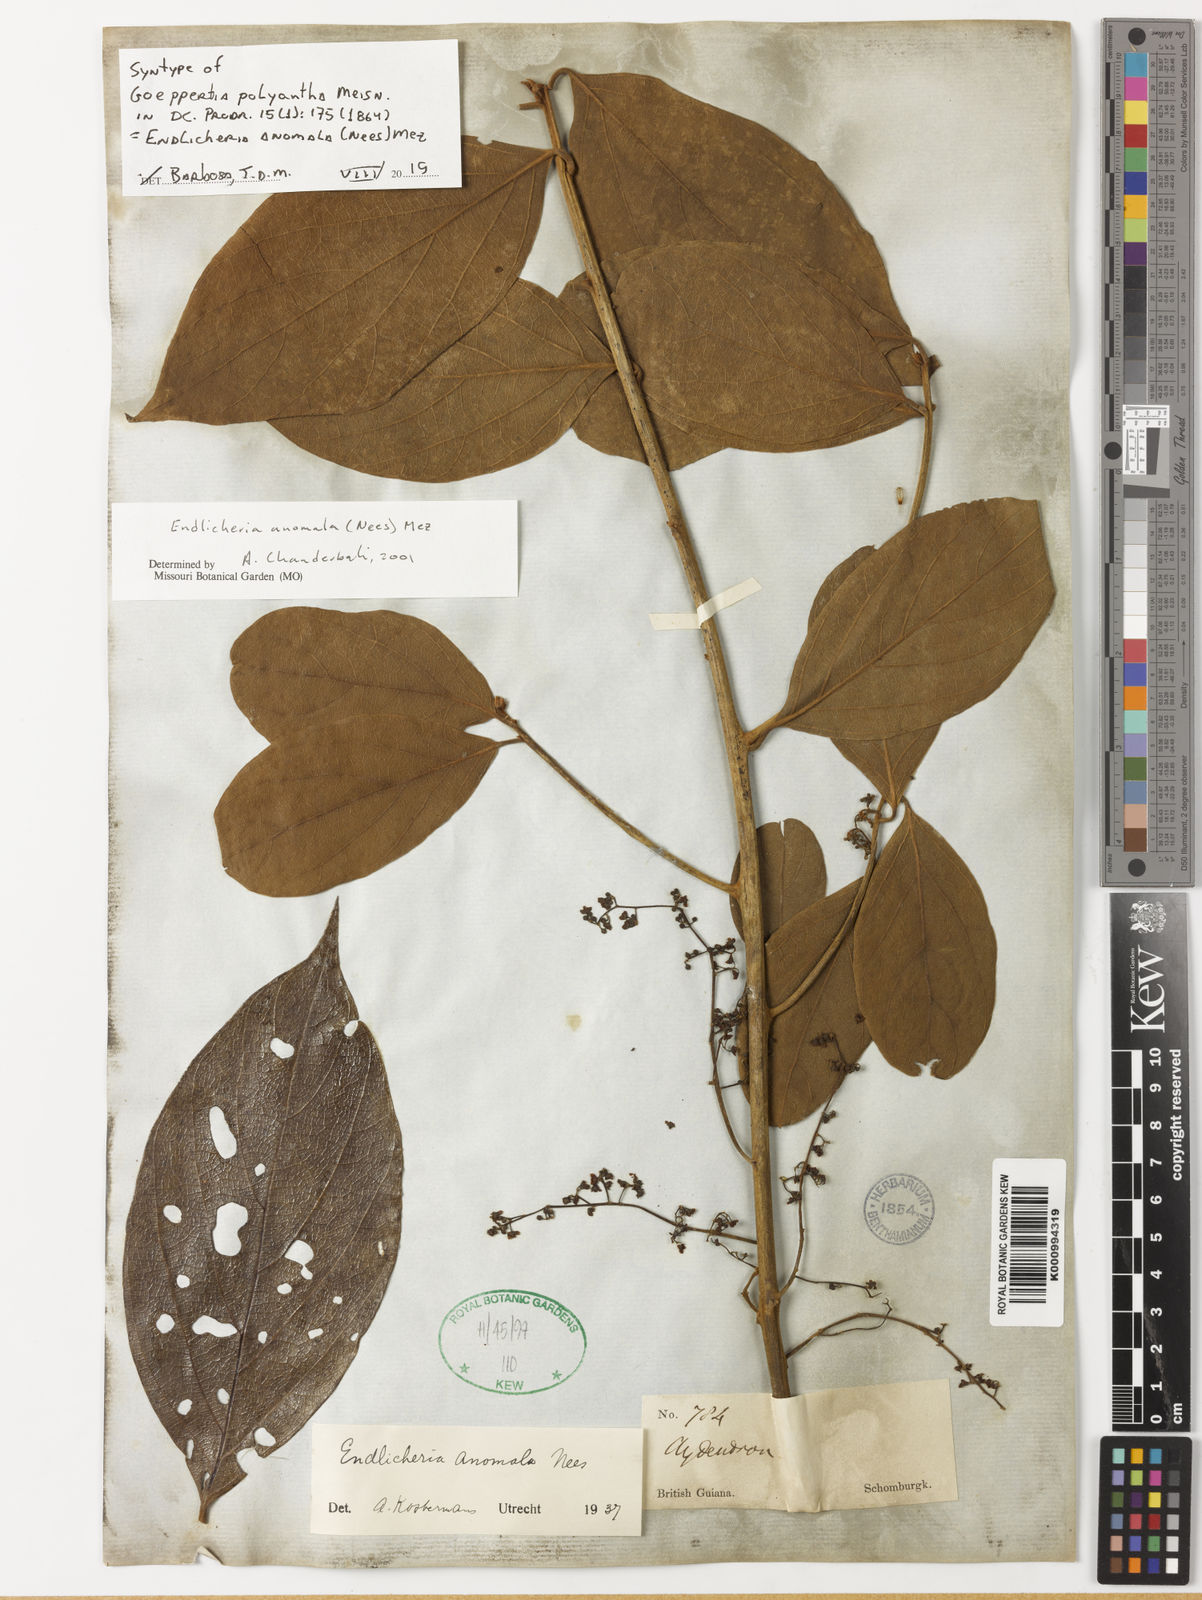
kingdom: Plantae
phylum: Tracheophyta
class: Magnoliopsida
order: Laurales
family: Lauraceae
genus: Endlicheria
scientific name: Endlicheria anomala
